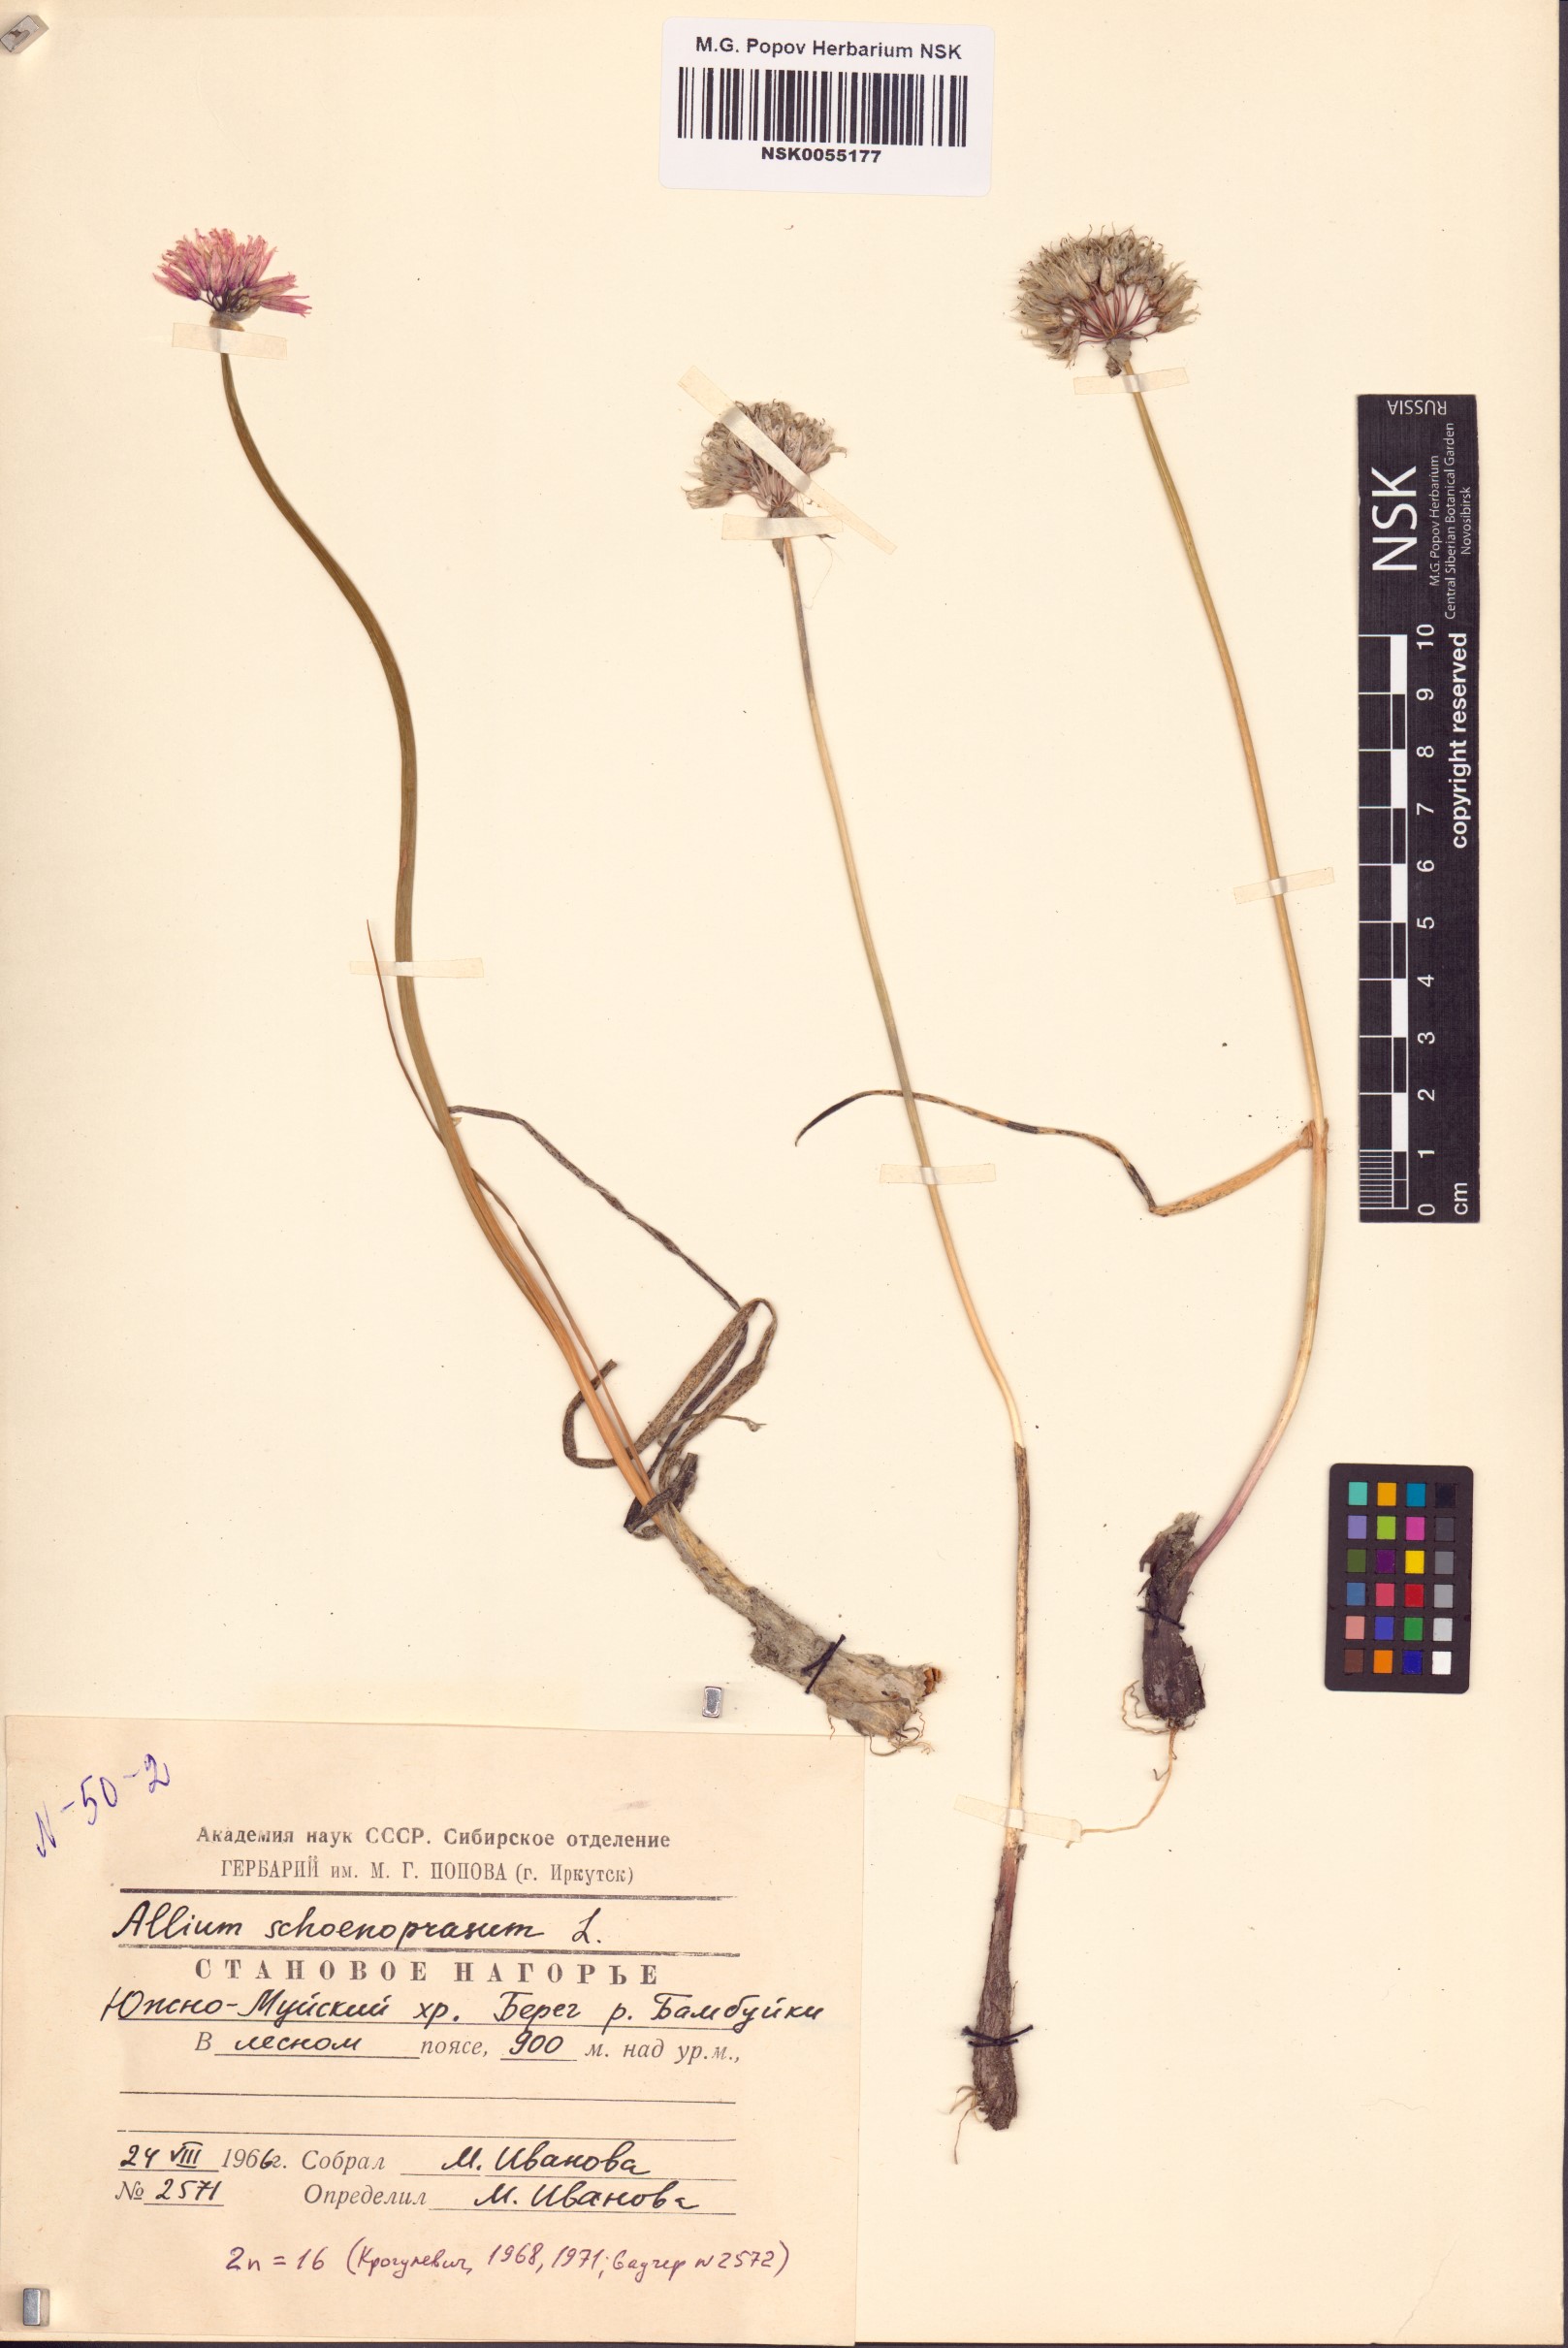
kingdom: Plantae
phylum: Tracheophyta
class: Liliopsida
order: Asparagales
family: Amaryllidaceae
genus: Allium
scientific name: Allium schoenoprasum
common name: Chives
